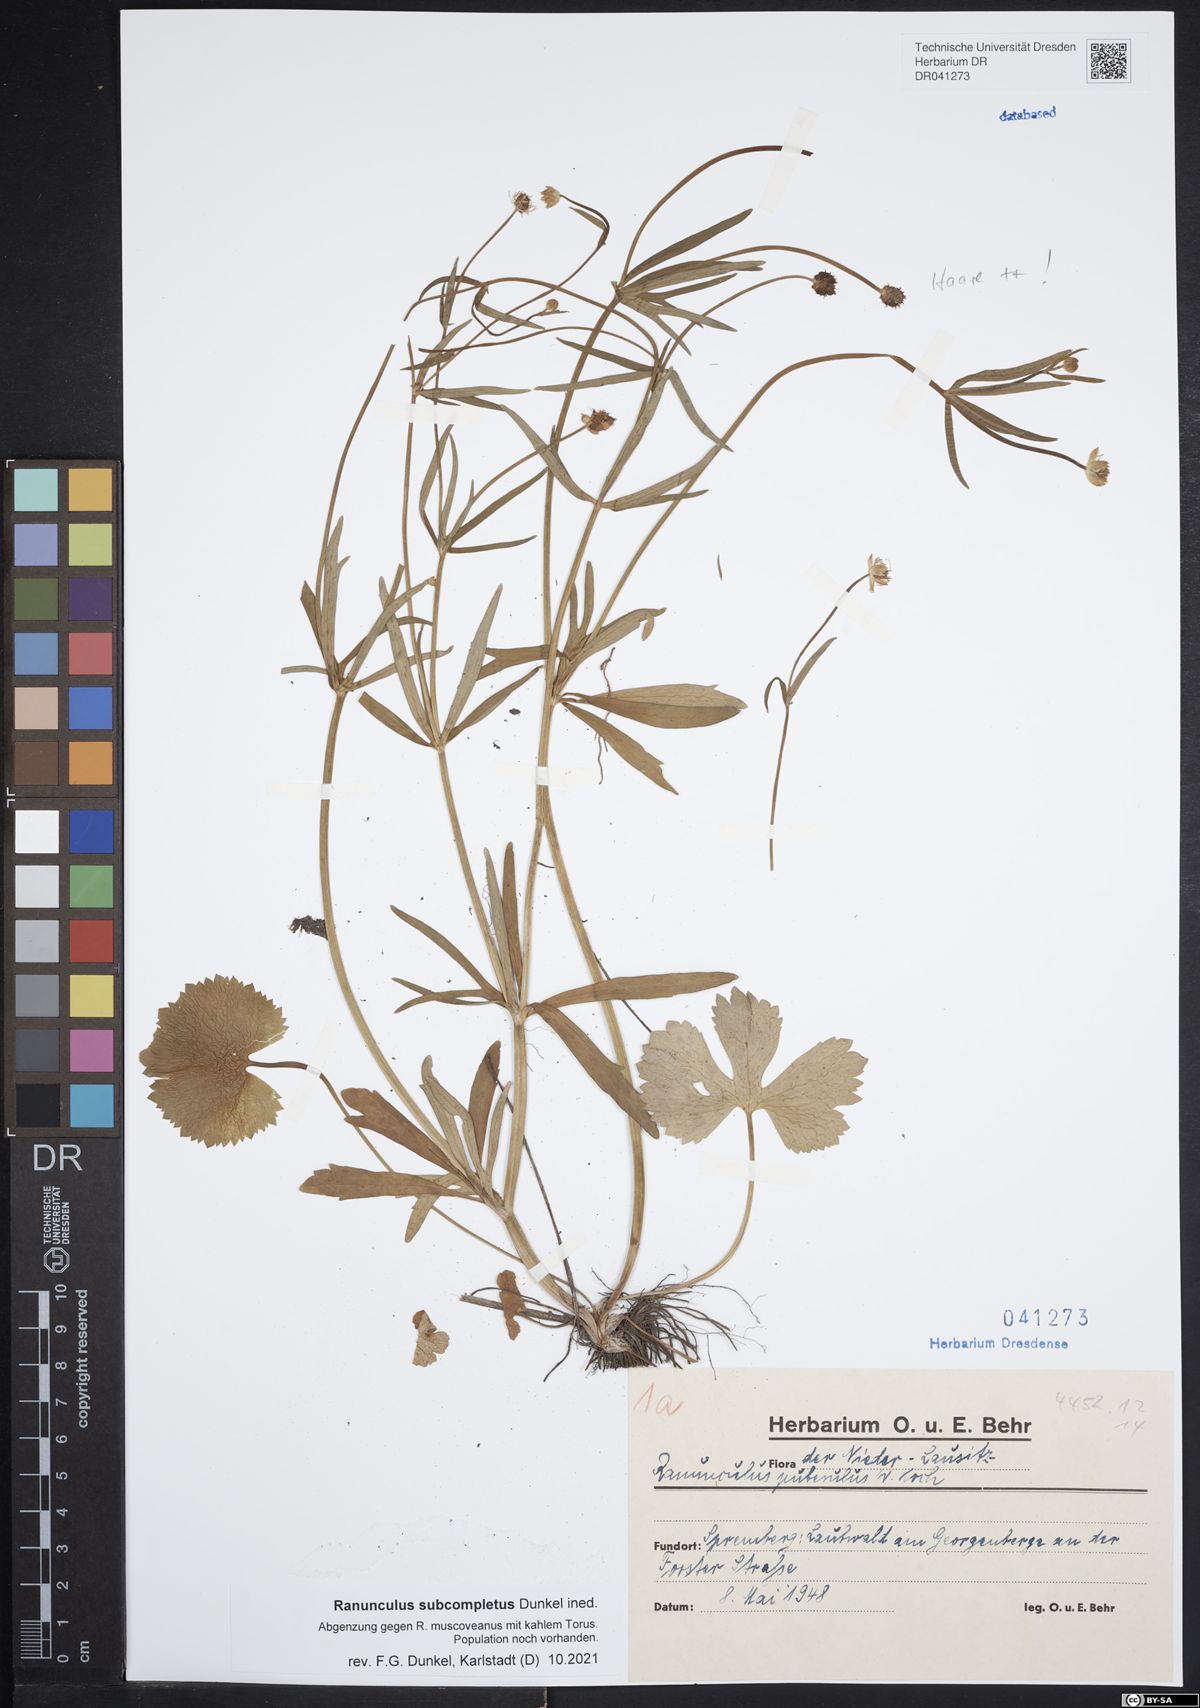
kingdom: Plantae
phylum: Tracheophyta
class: Magnoliopsida
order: Ranunculales
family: Ranunculaceae
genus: Ranunculus
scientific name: Ranunculus auricomus
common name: Goldilocks buttercup
